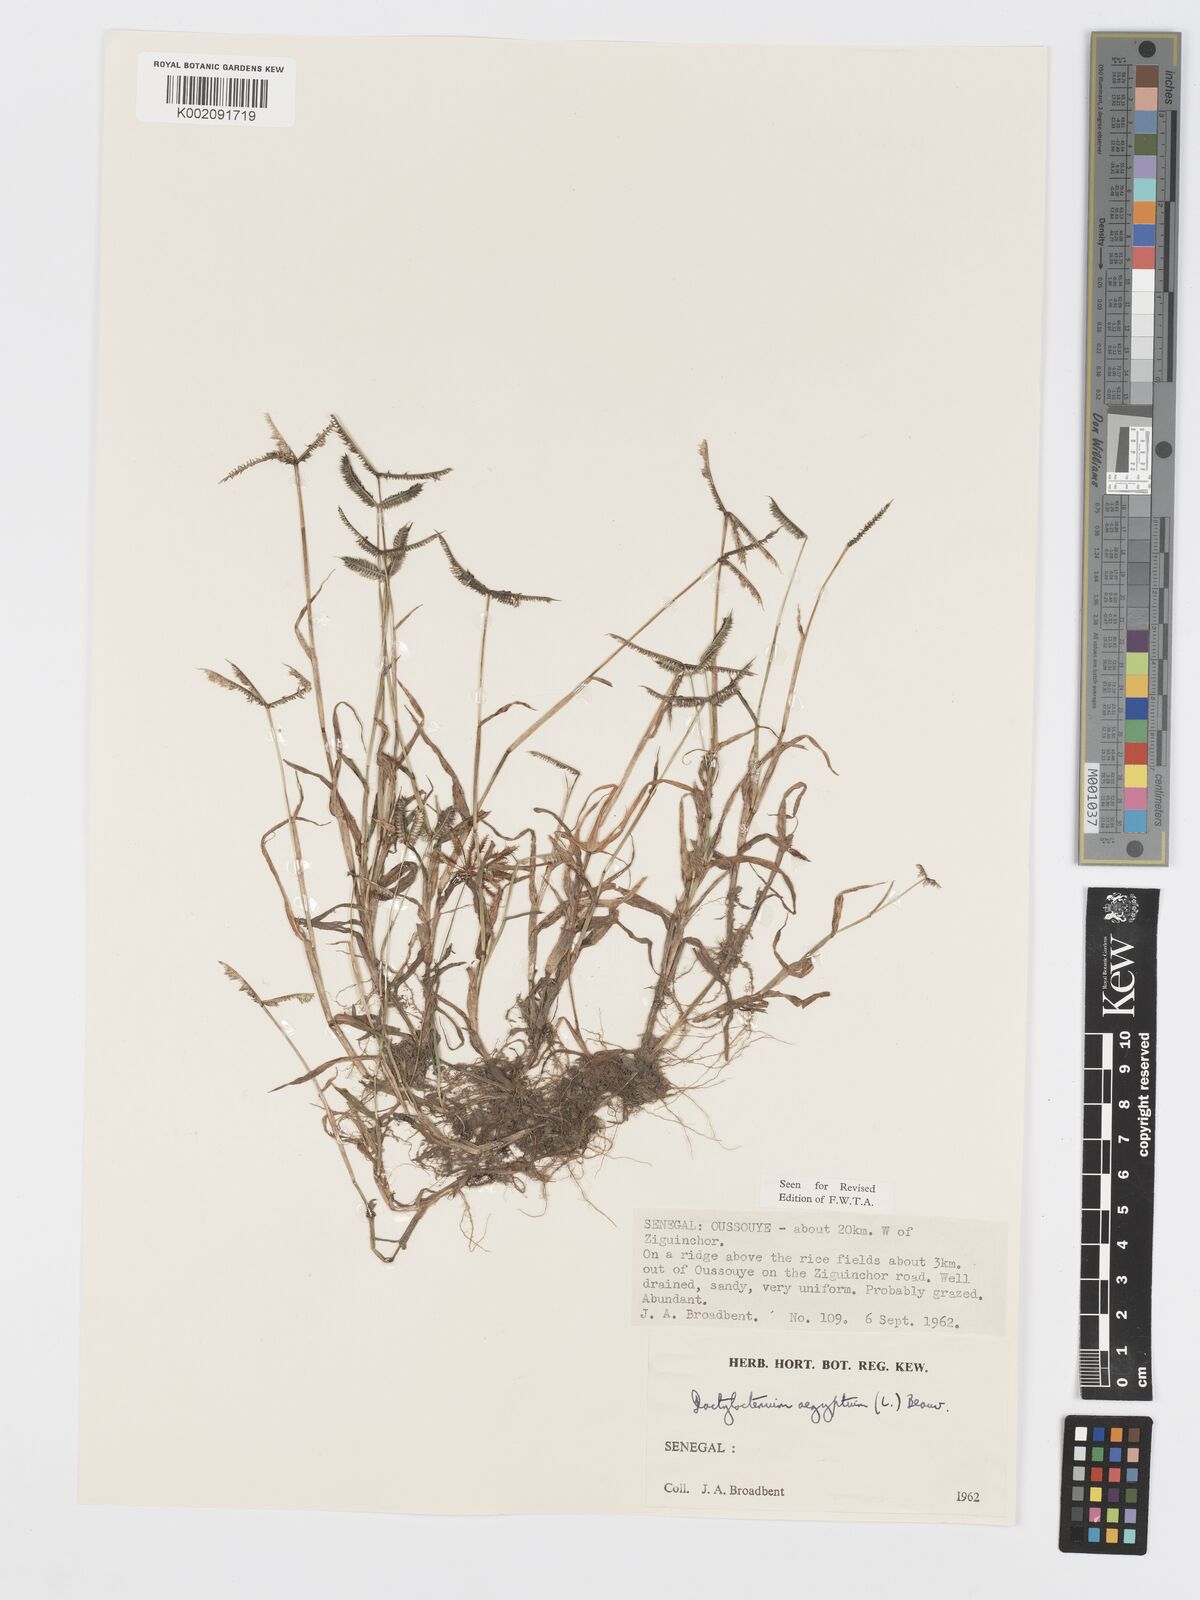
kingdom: Plantae
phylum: Tracheophyta
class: Liliopsida
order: Poales
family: Poaceae
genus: Dactyloctenium
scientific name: Dactyloctenium aegyptium
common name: Egyptian grass
